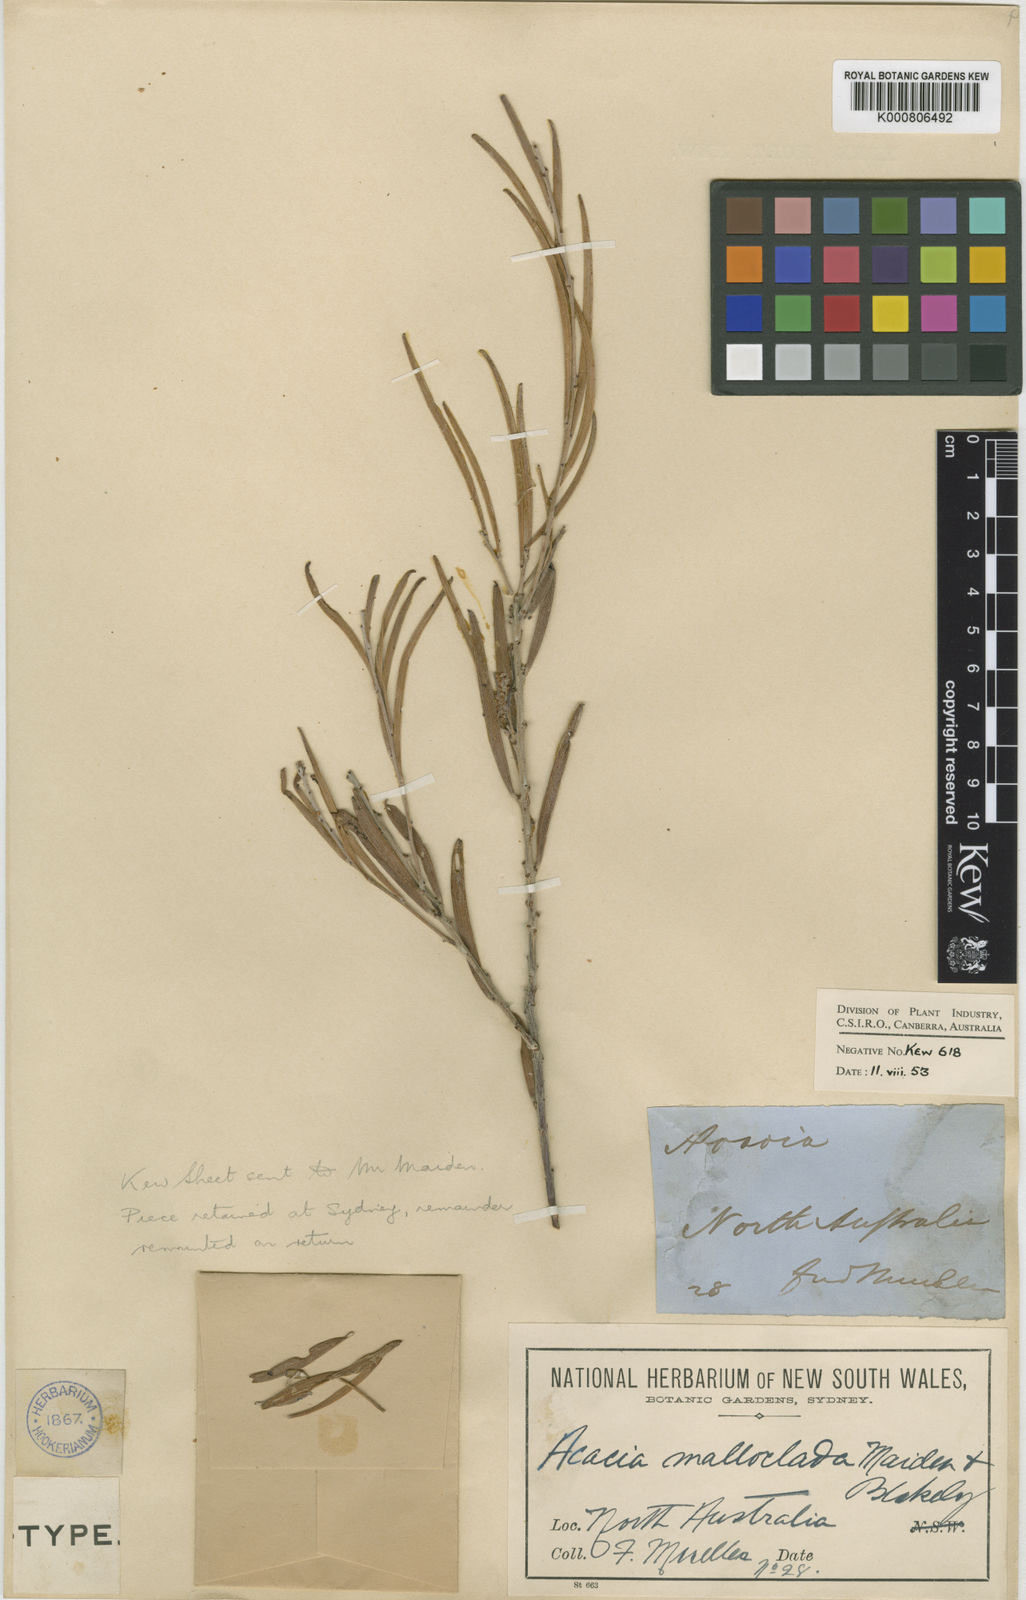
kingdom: Plantae
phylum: Tracheophyta
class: Magnoliopsida
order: Fabales
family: Fabaceae
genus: Acacia
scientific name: Acacia malloclada
